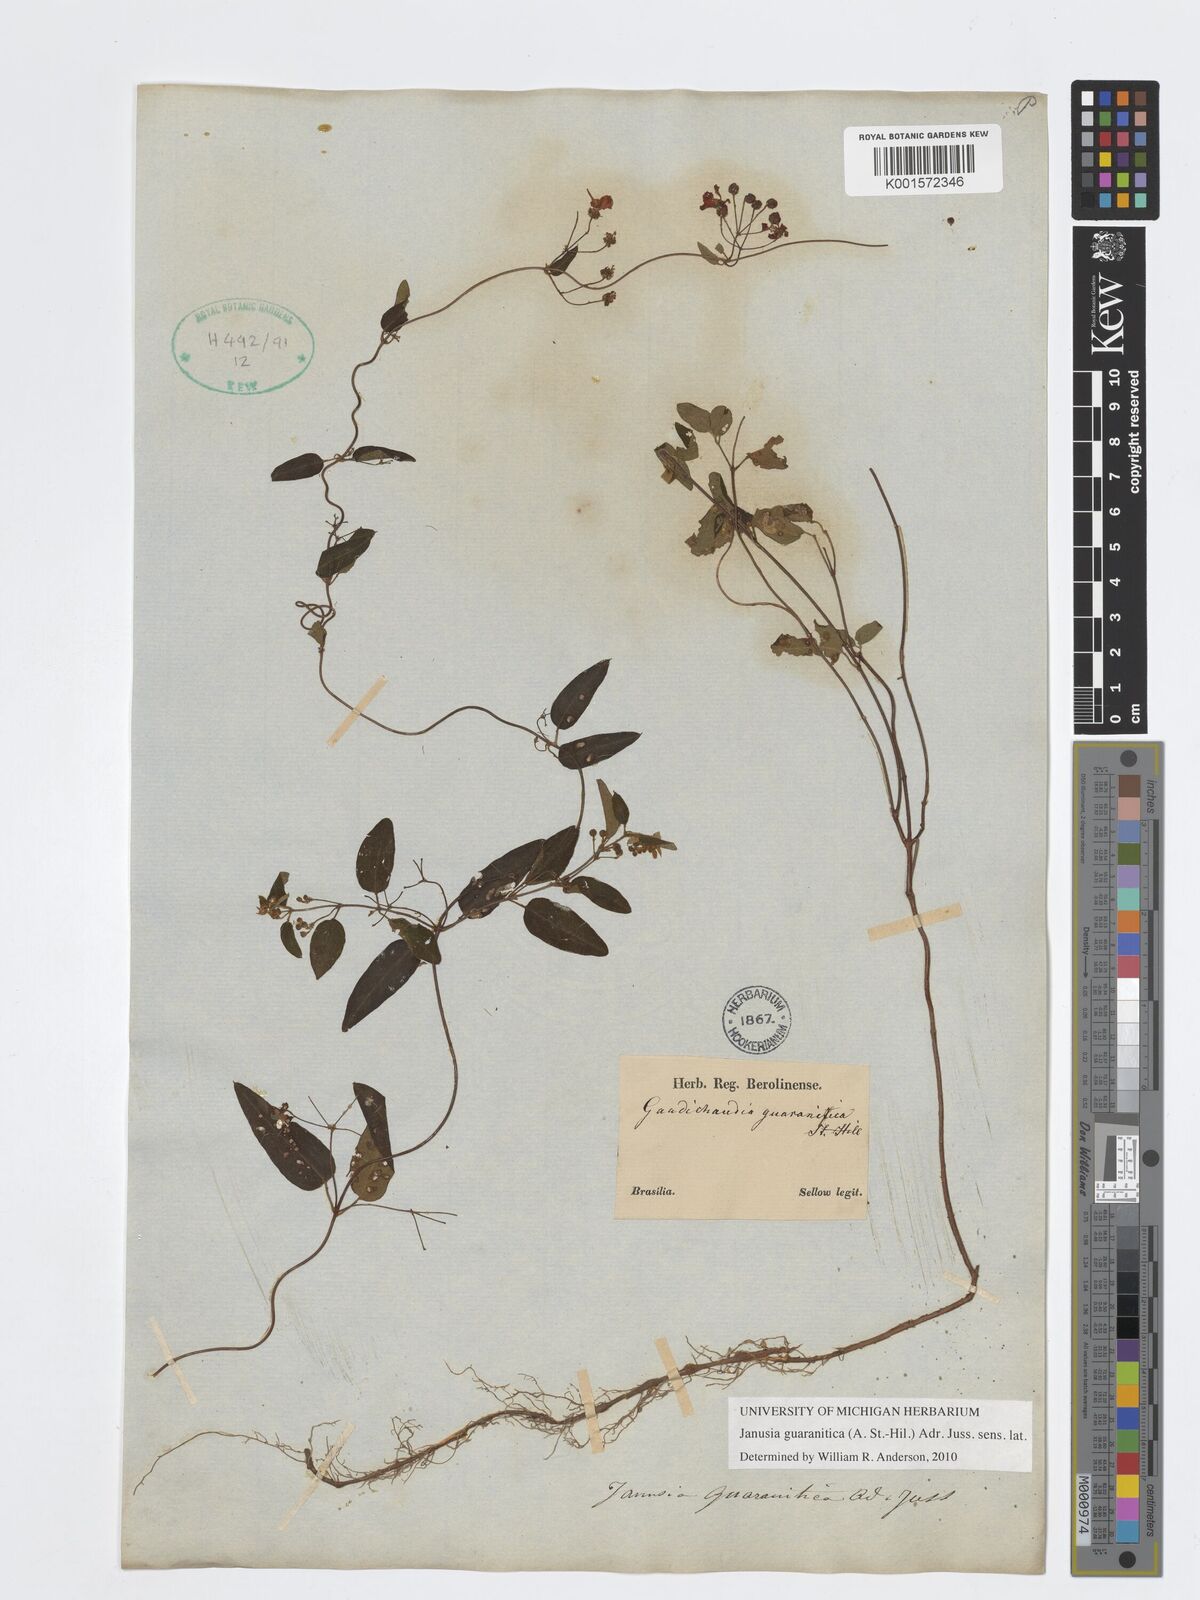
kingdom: Plantae
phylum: Tracheophyta
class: Magnoliopsida
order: Malpighiales
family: Malpighiaceae
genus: Janusia
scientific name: Janusia guaranitica
